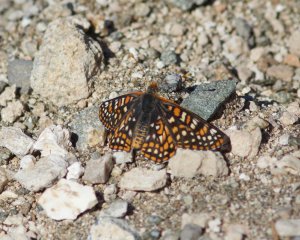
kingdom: Animalia
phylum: Arthropoda
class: Insecta
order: Lepidoptera
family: Nymphalidae
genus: Occidryas
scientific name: Occidryas anicia
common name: Anicia Checkerspot
